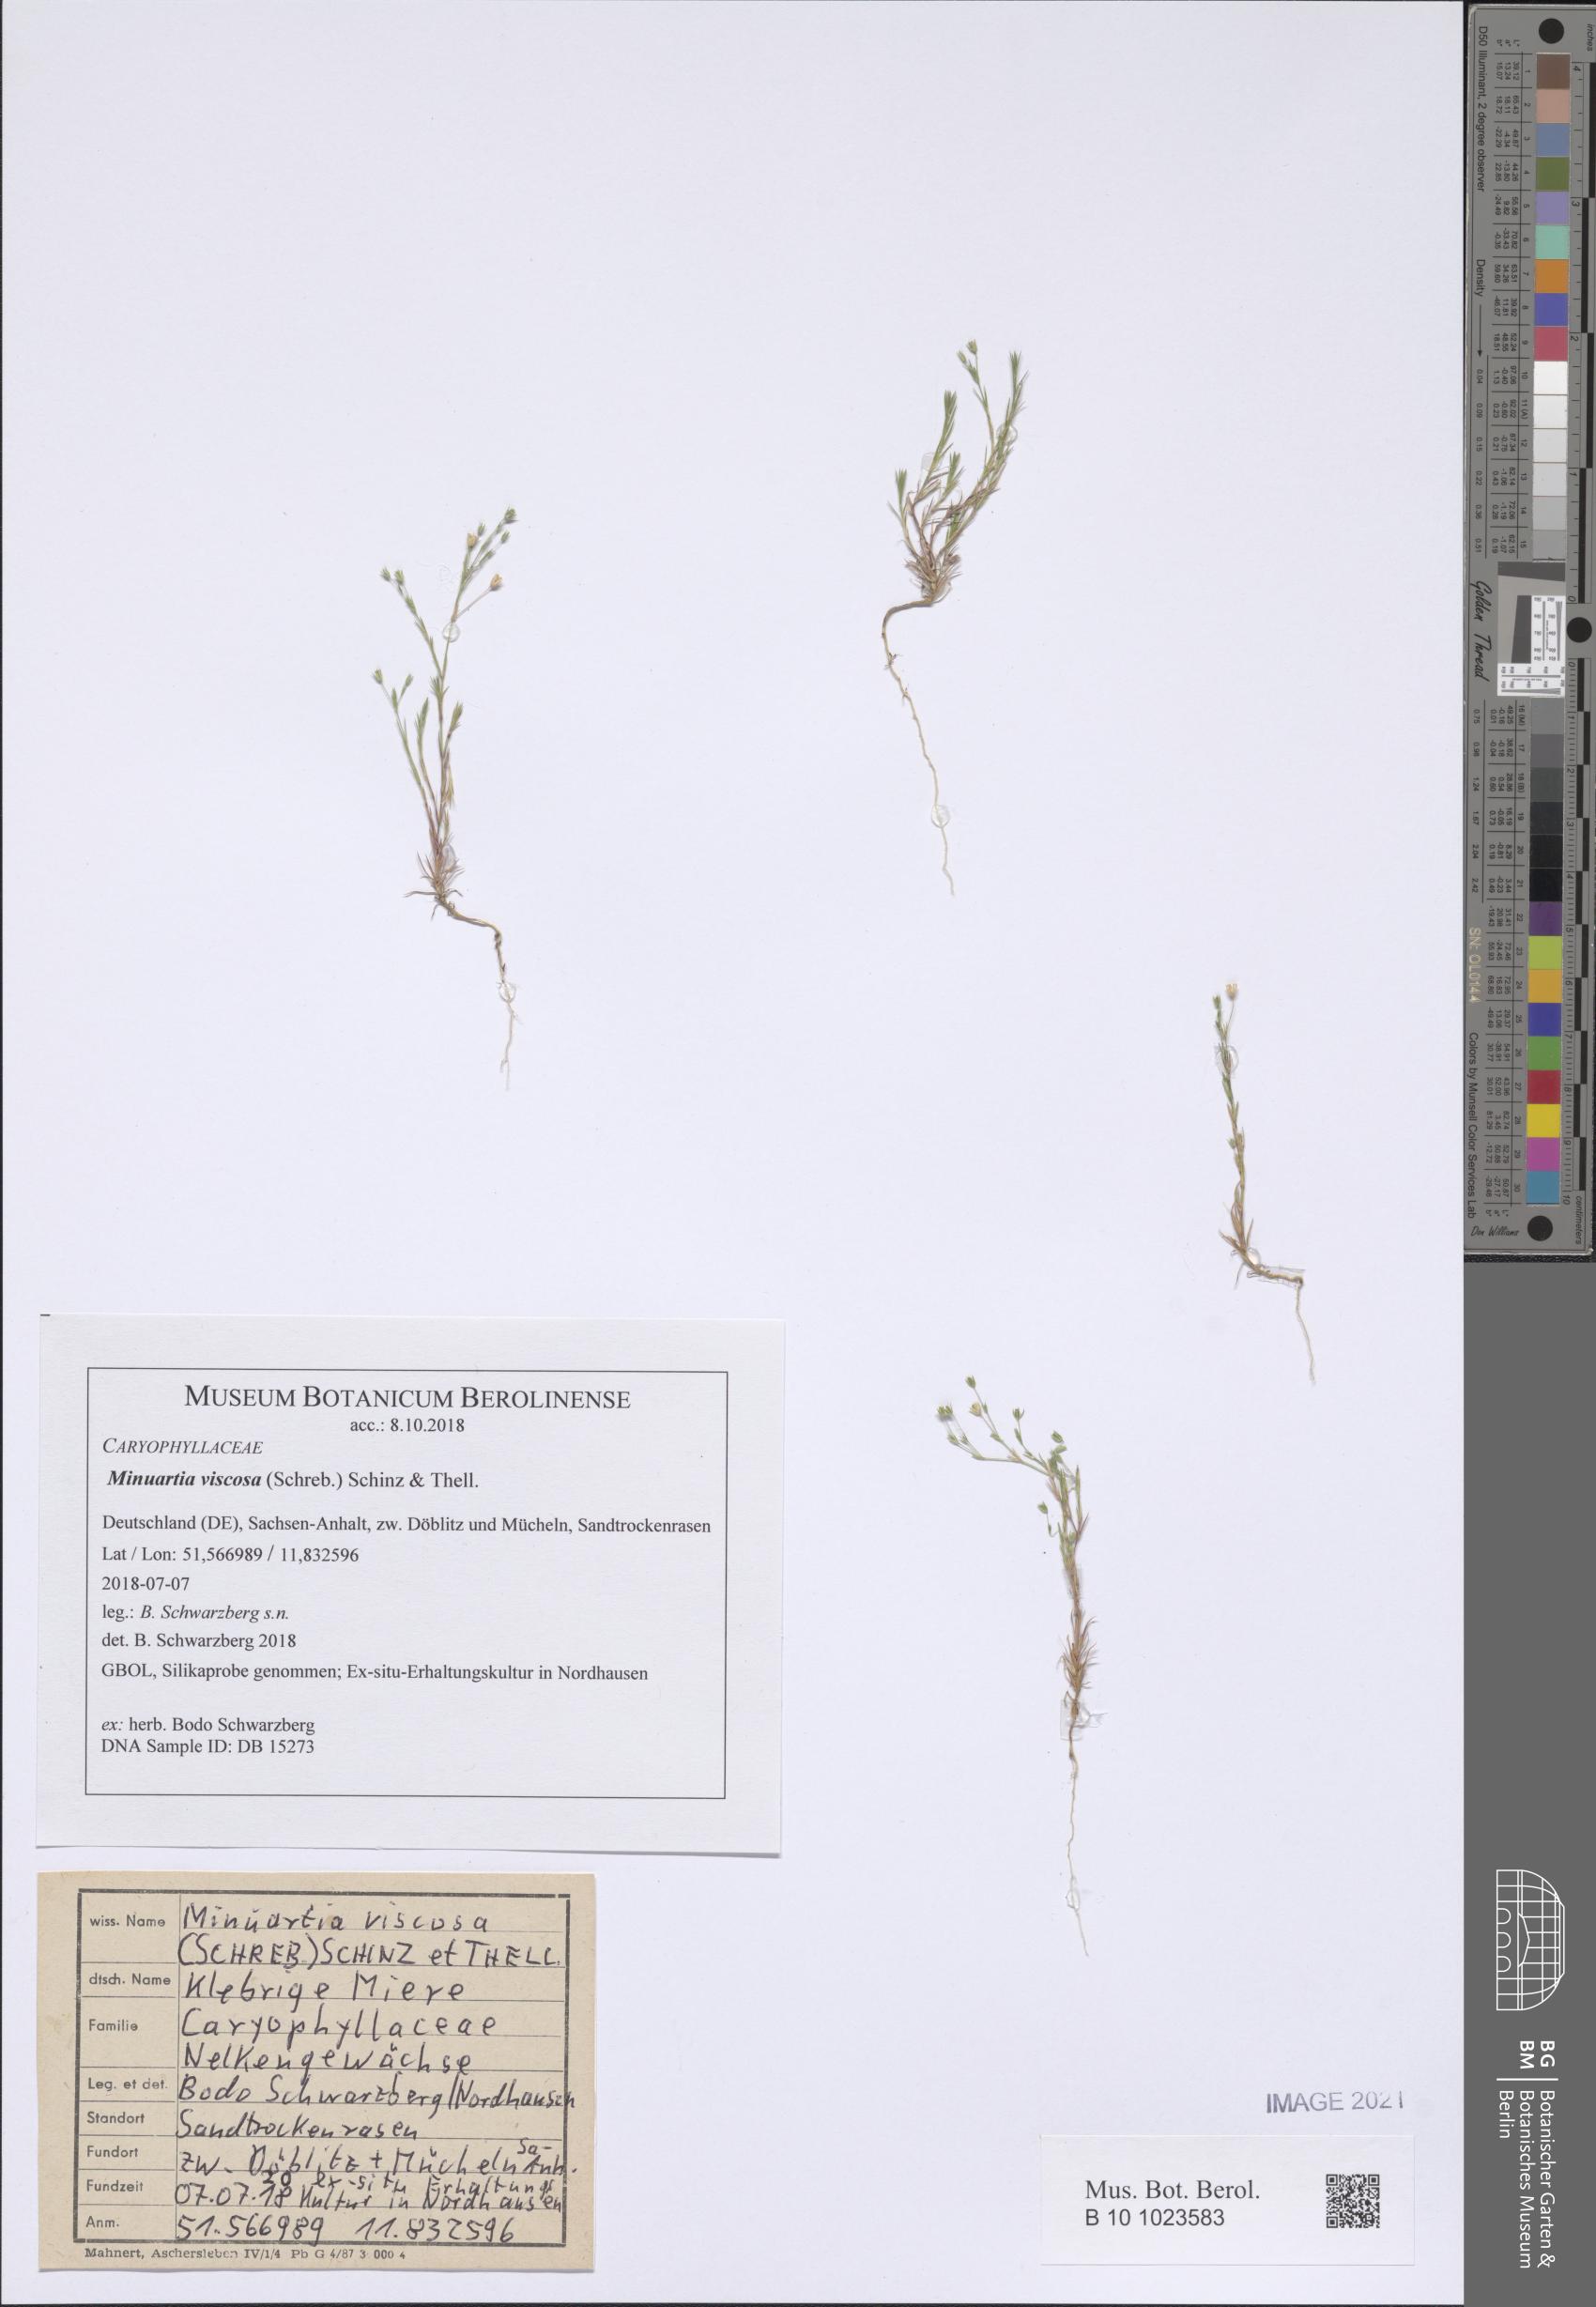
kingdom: Plantae
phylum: Tracheophyta
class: Magnoliopsida
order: Caryophyllales
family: Caryophyllaceae
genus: Sabulina
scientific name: Sabulina viscosa
